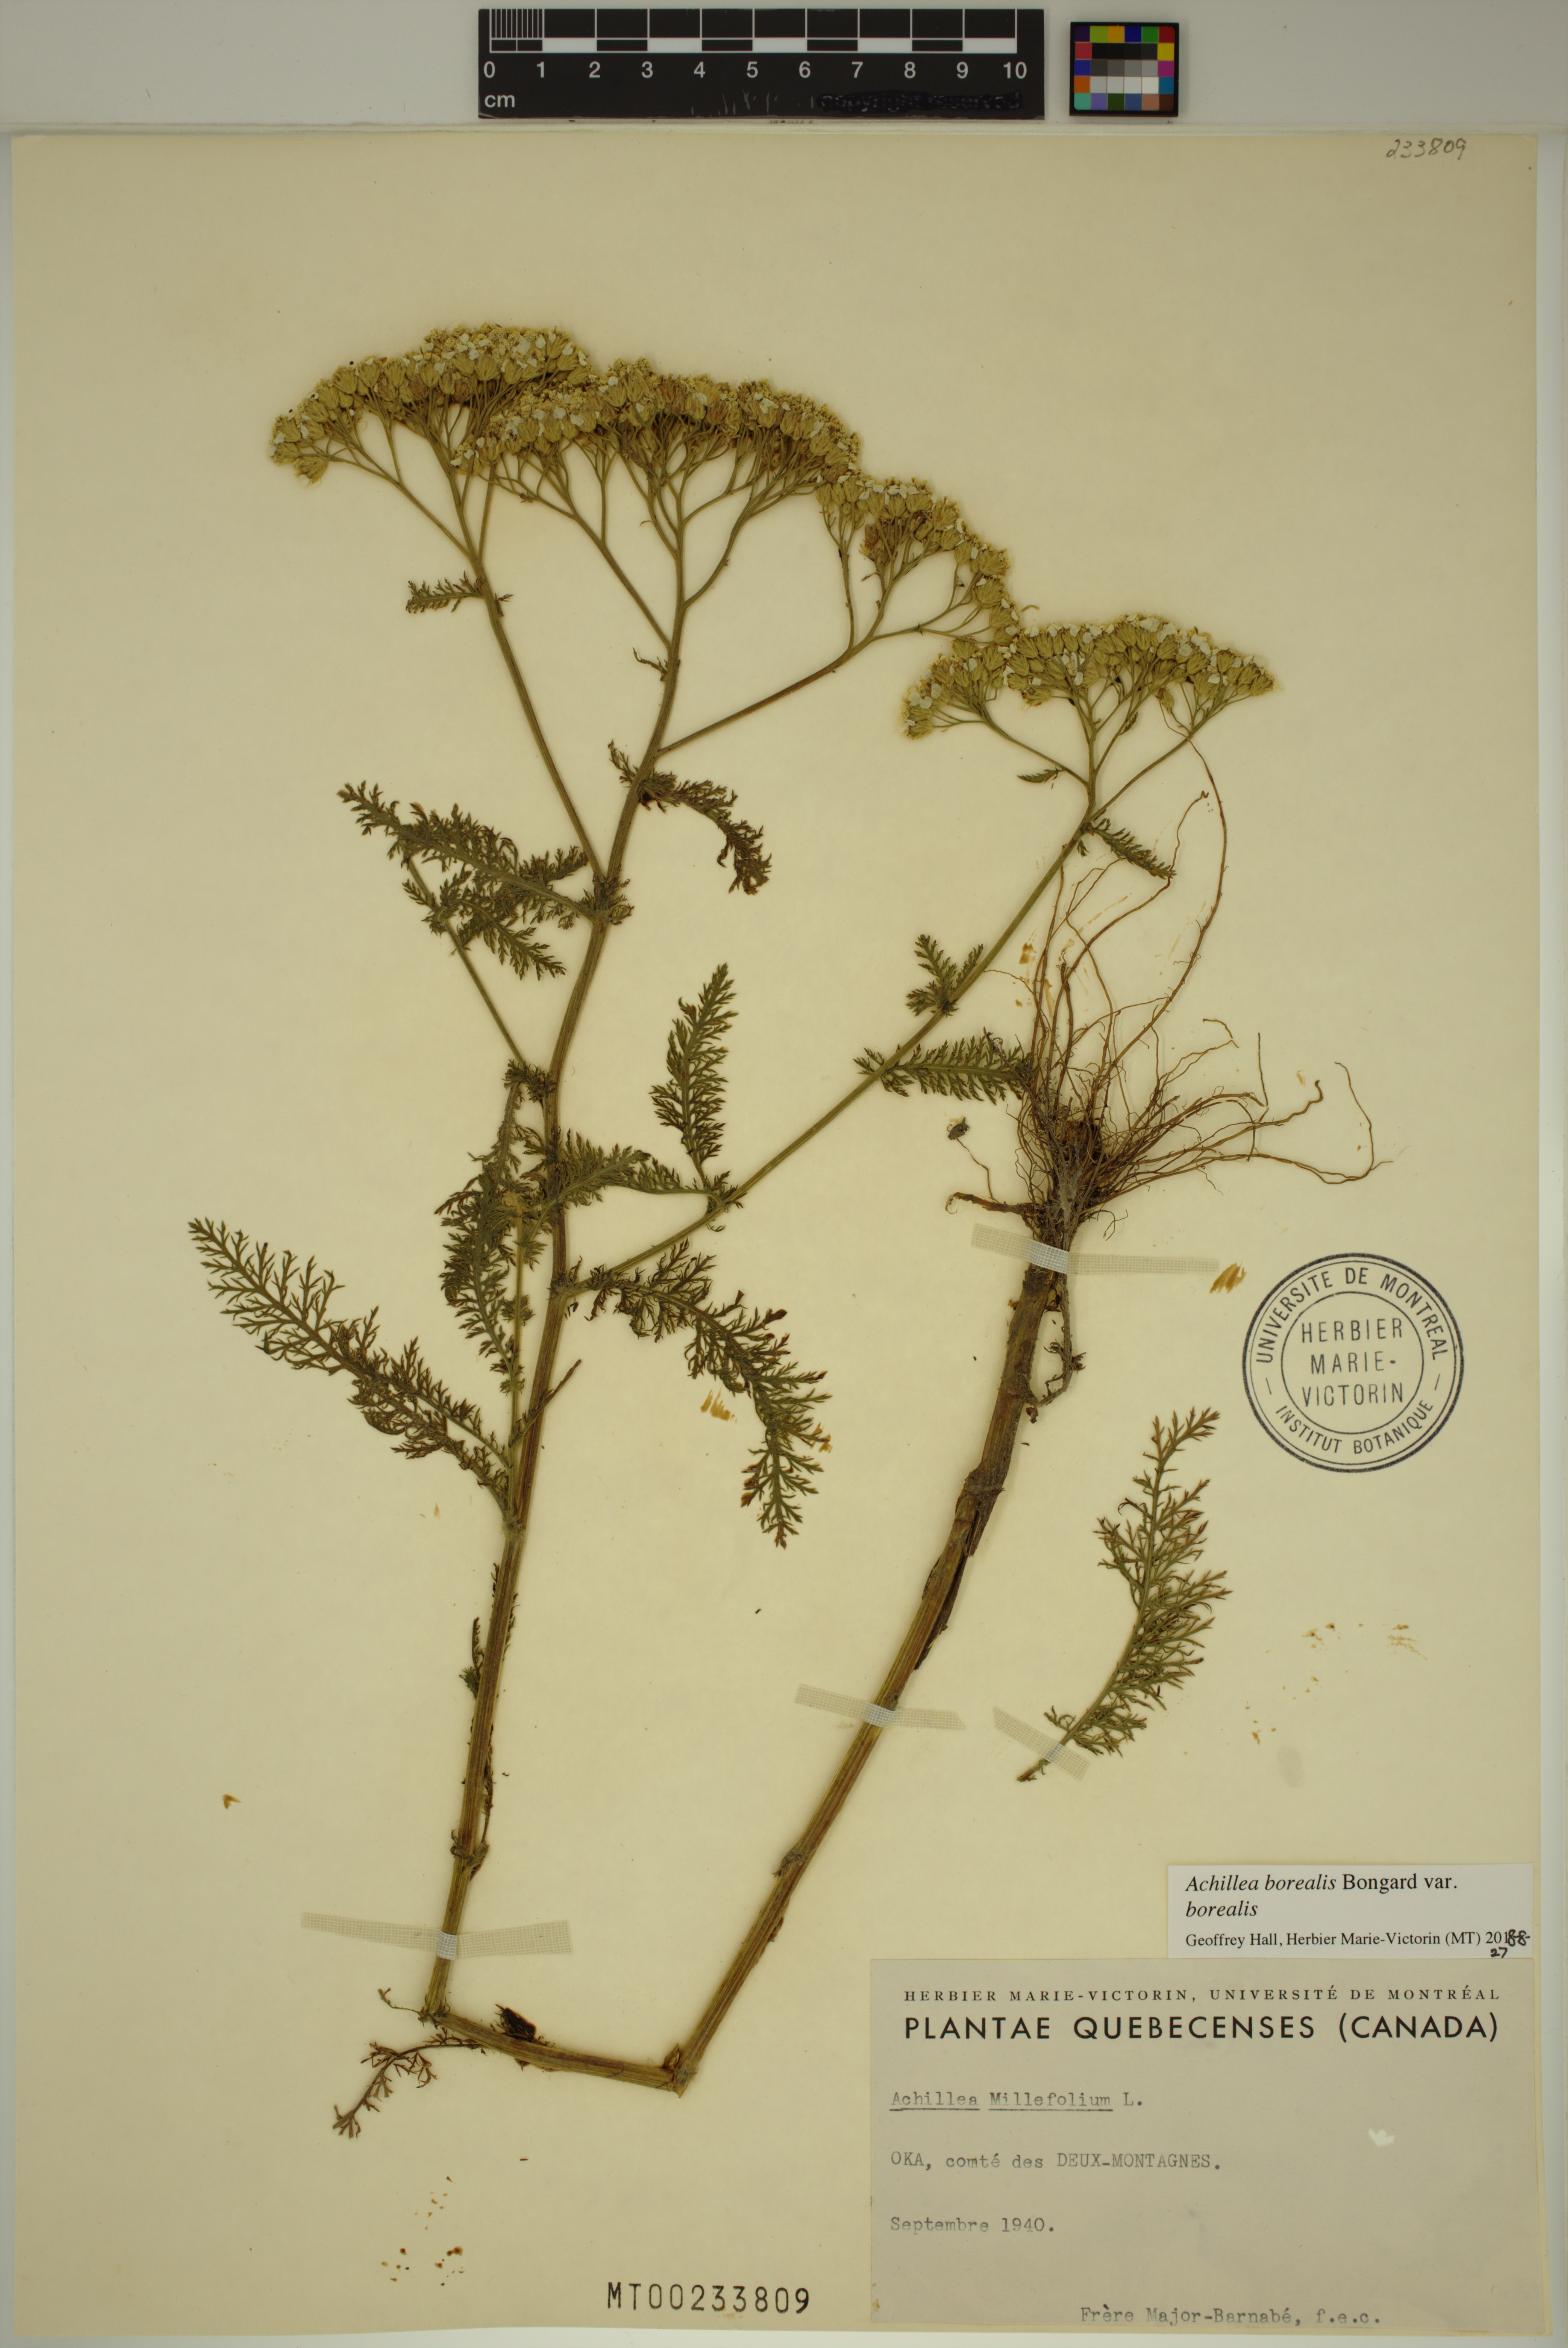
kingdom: Plantae
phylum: Tracheophyta
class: Magnoliopsida
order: Asterales
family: Asteraceae
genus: Achillea
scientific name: Achillea millefolium
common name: Yarrow
